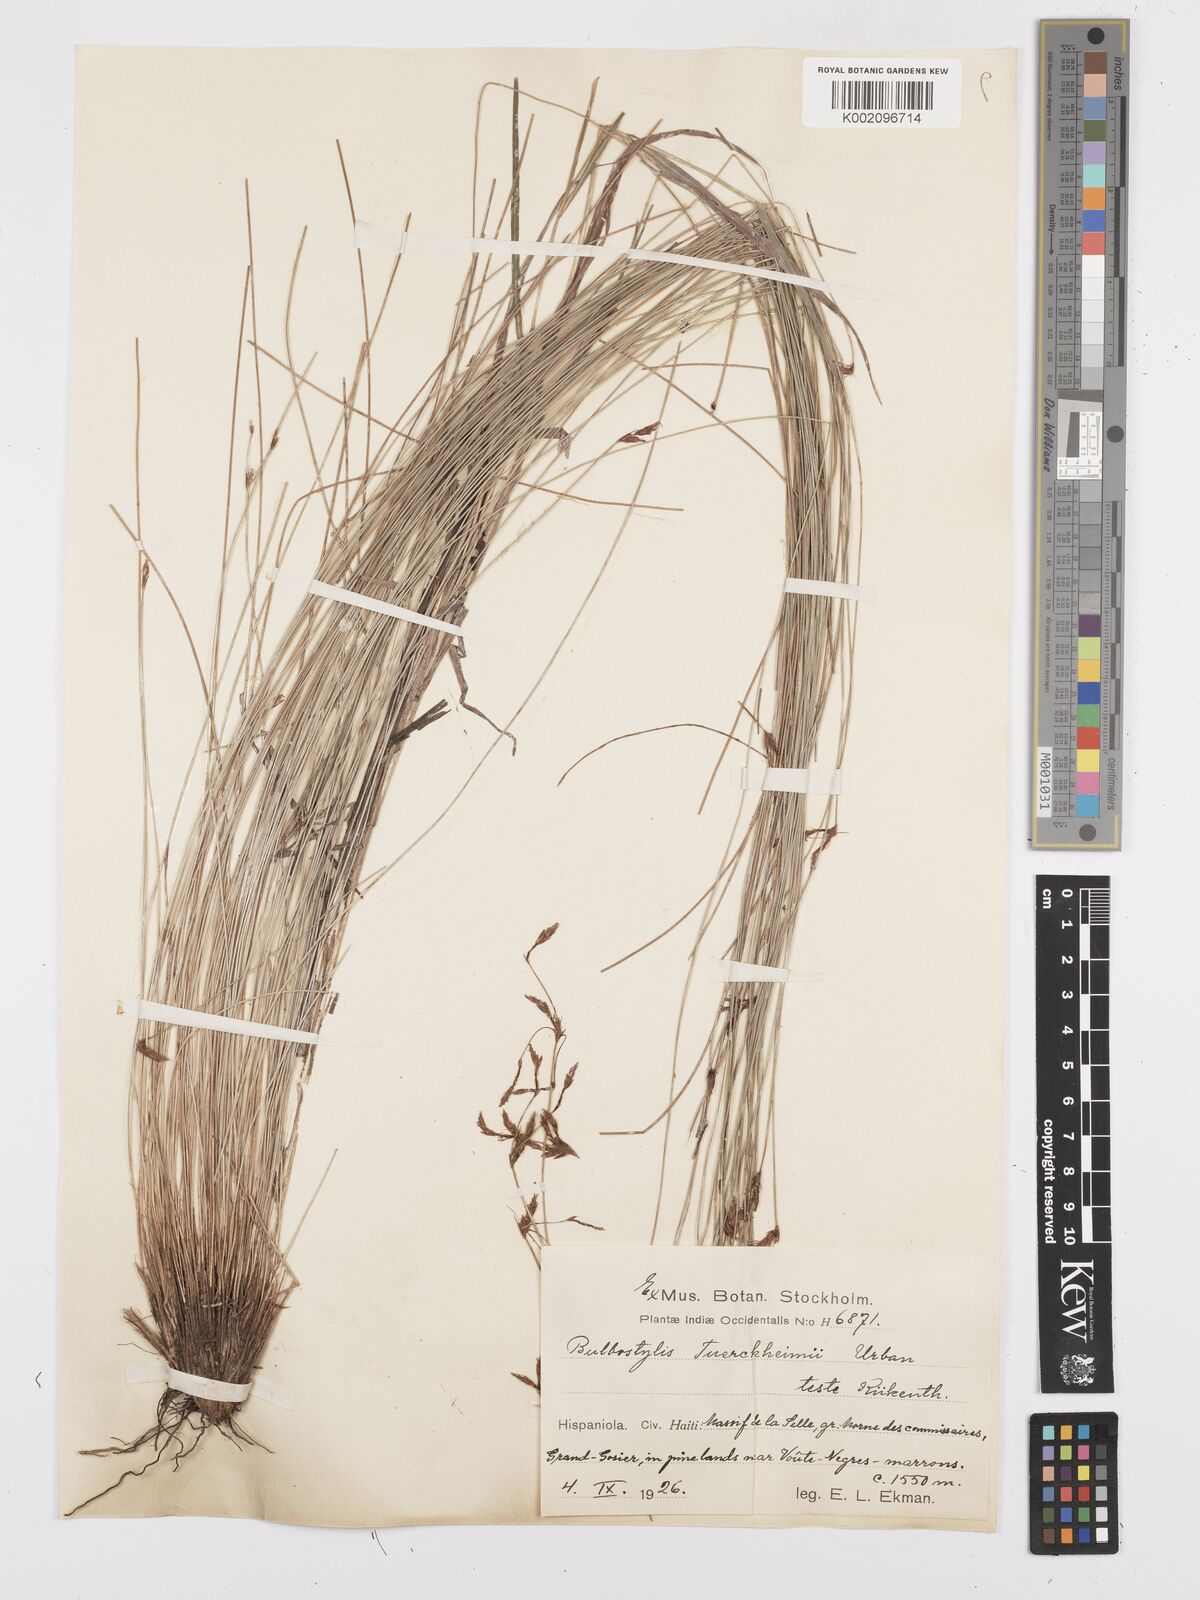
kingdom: Plantae
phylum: Tracheophyta
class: Liliopsida
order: Poales
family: Cyperaceae
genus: Bulbostylis
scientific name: Bulbostylis tuerckheimii
